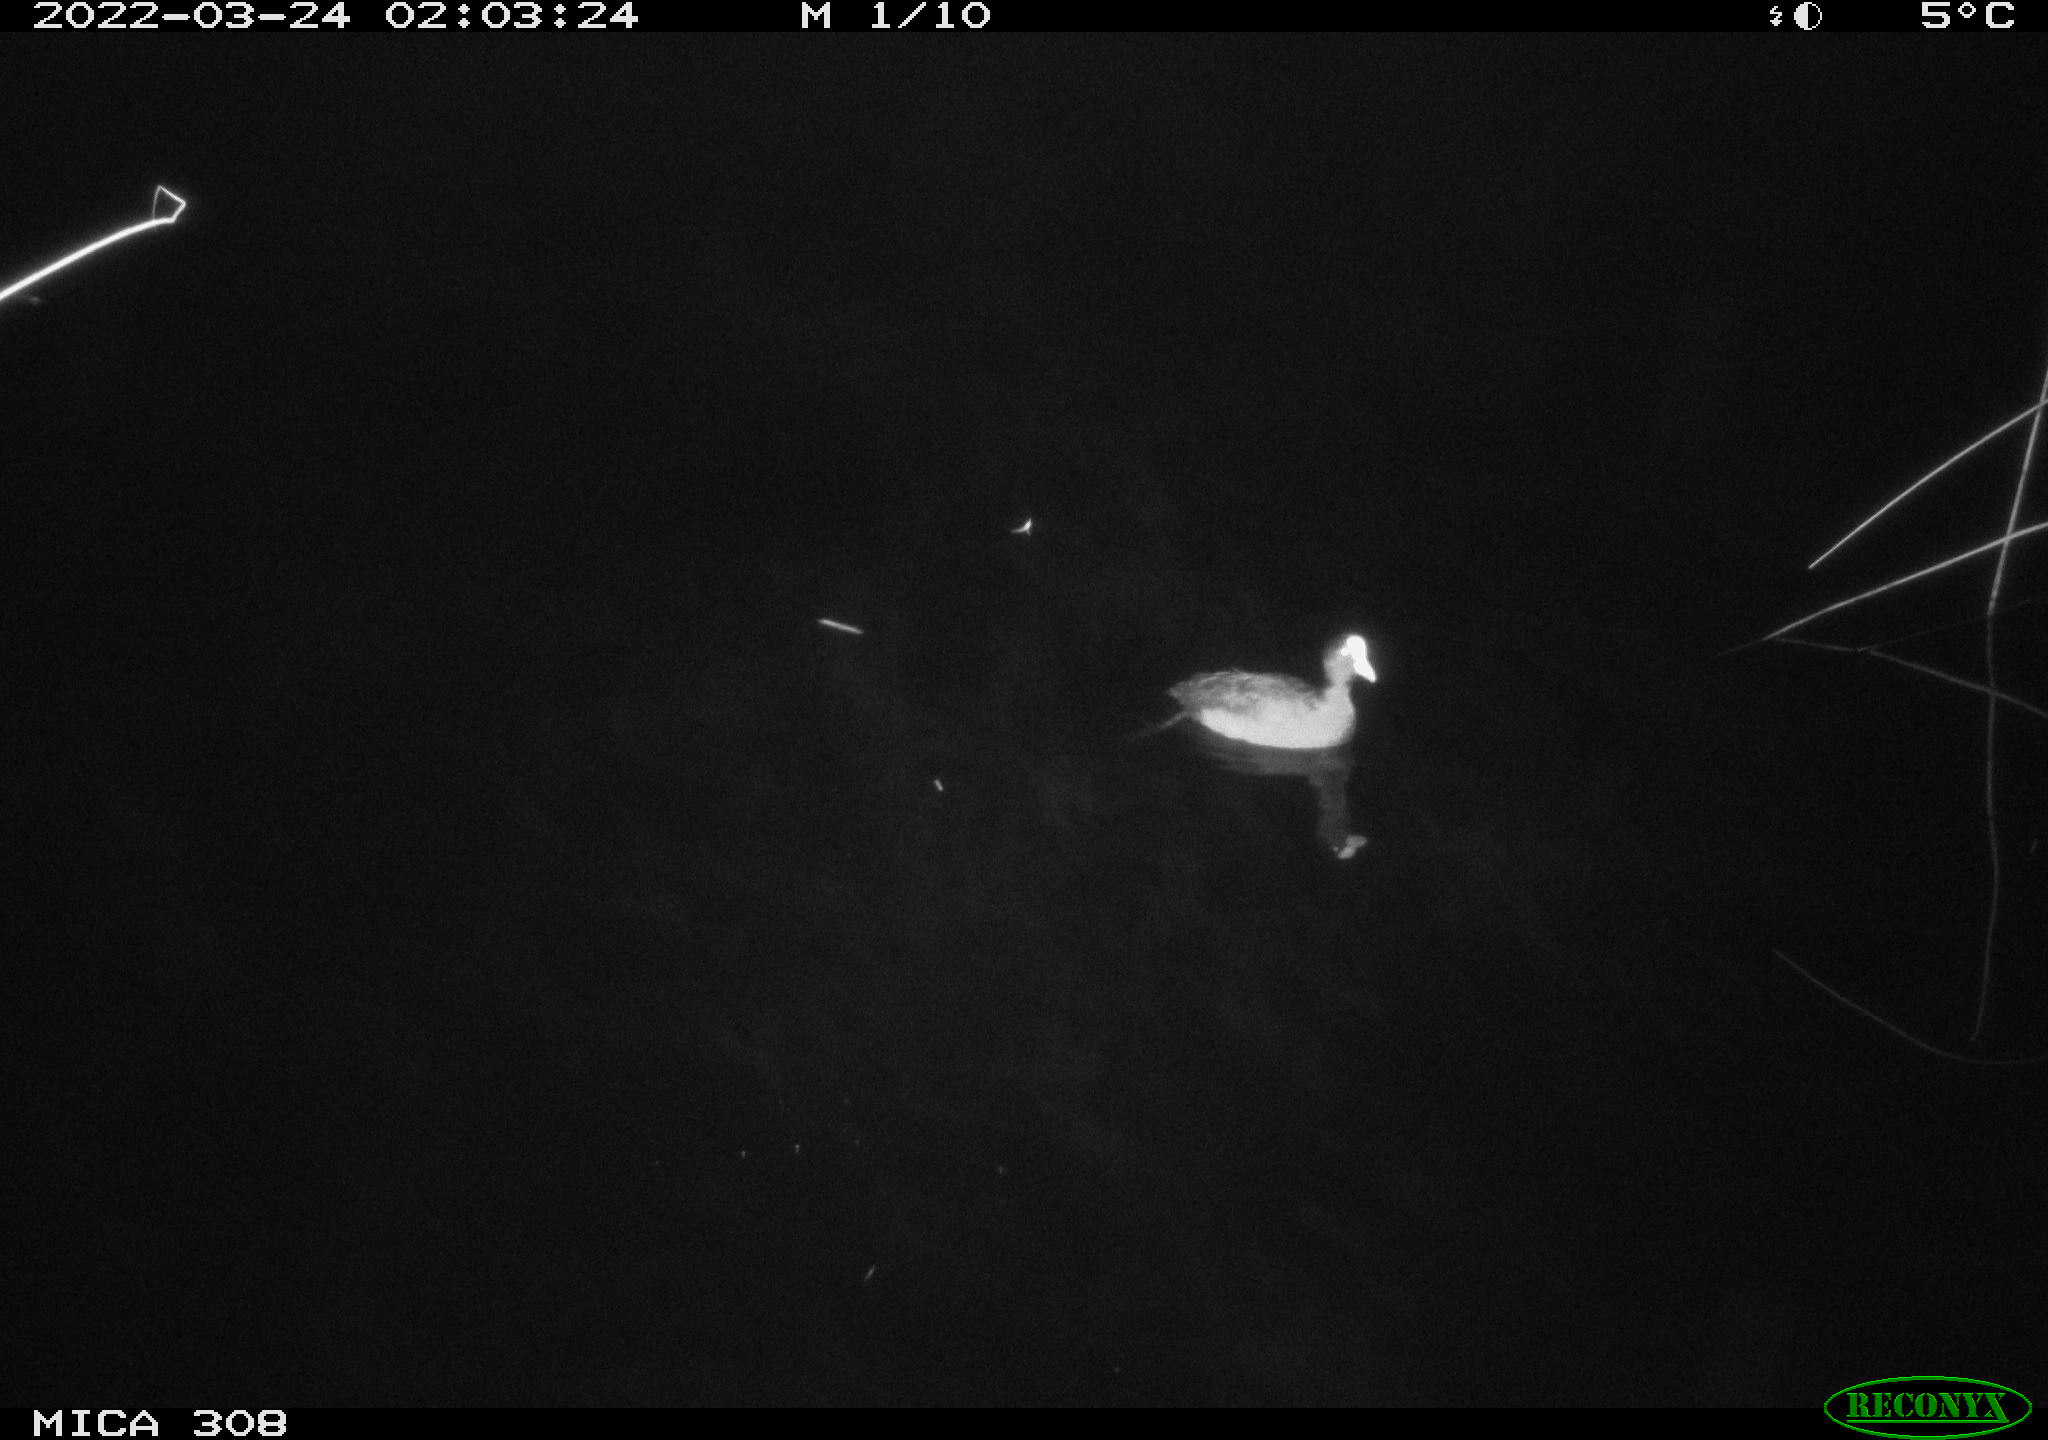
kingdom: Animalia
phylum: Chordata
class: Aves
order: Gruiformes
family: Rallidae
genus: Fulica
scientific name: Fulica atra
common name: Eurasian coot
